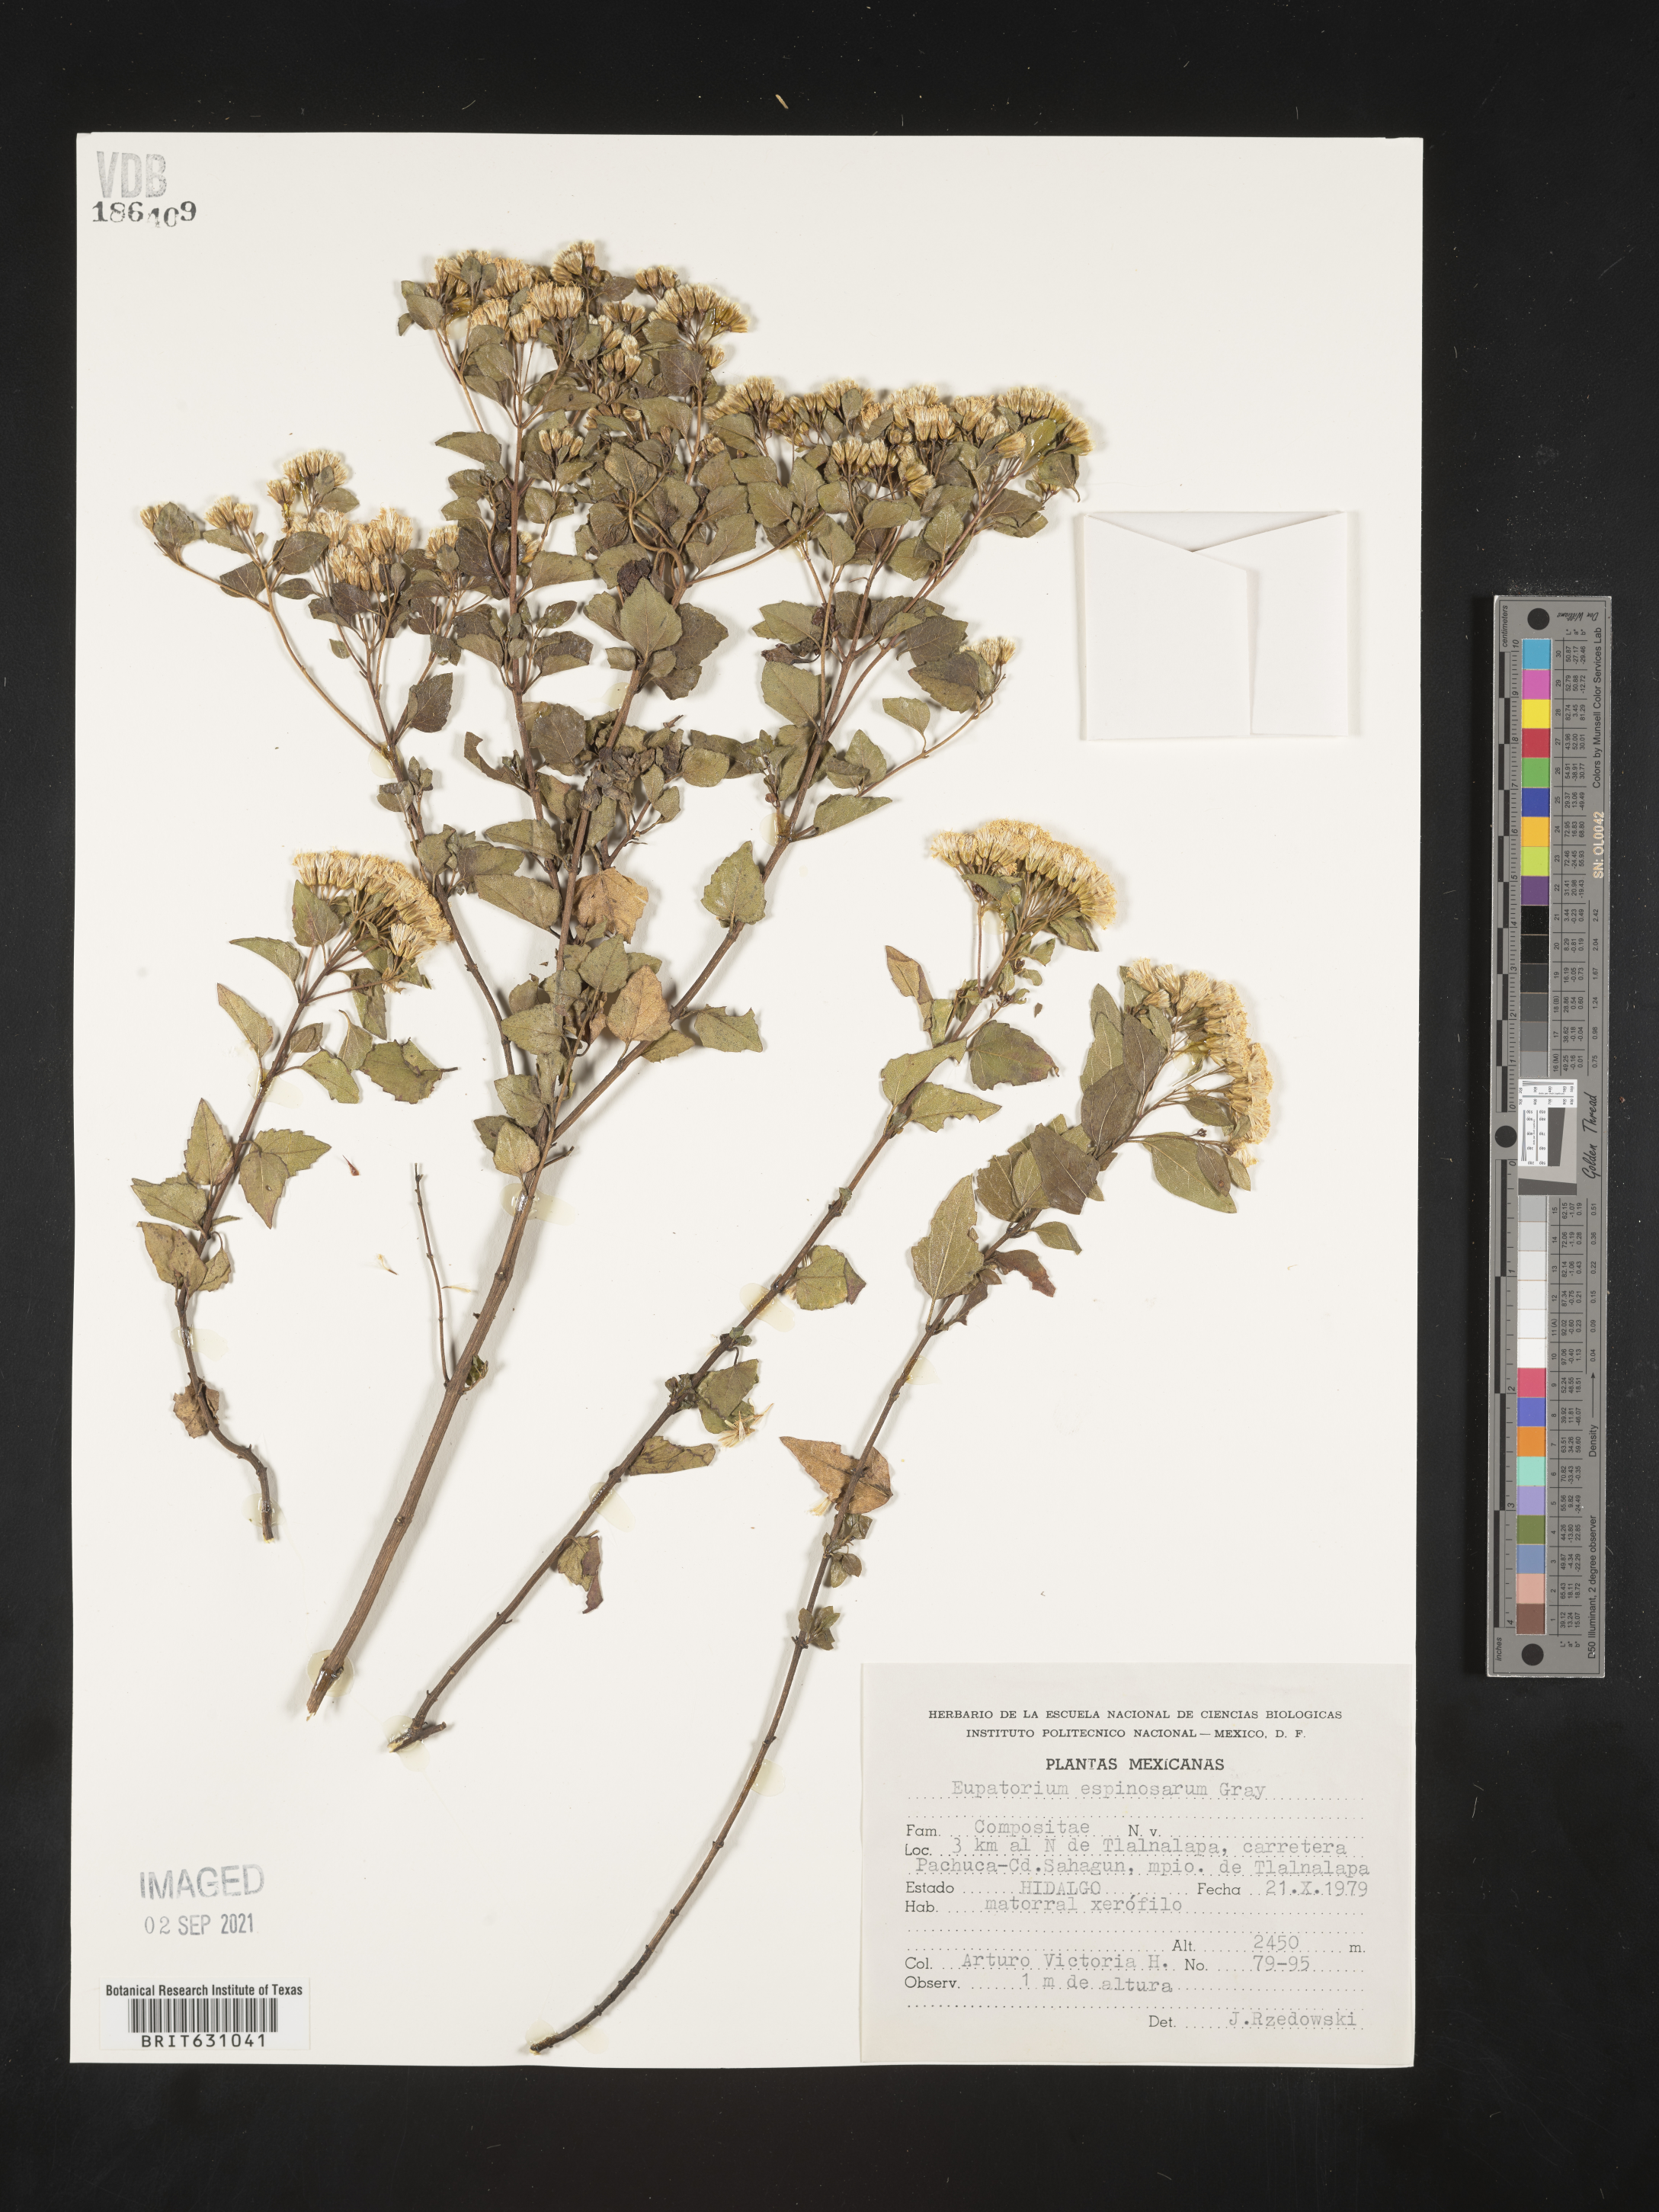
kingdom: Plantae
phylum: Tracheophyta
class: Magnoliopsida
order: Asterales
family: Asteraceae
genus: Eupatorium
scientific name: Eupatorium
